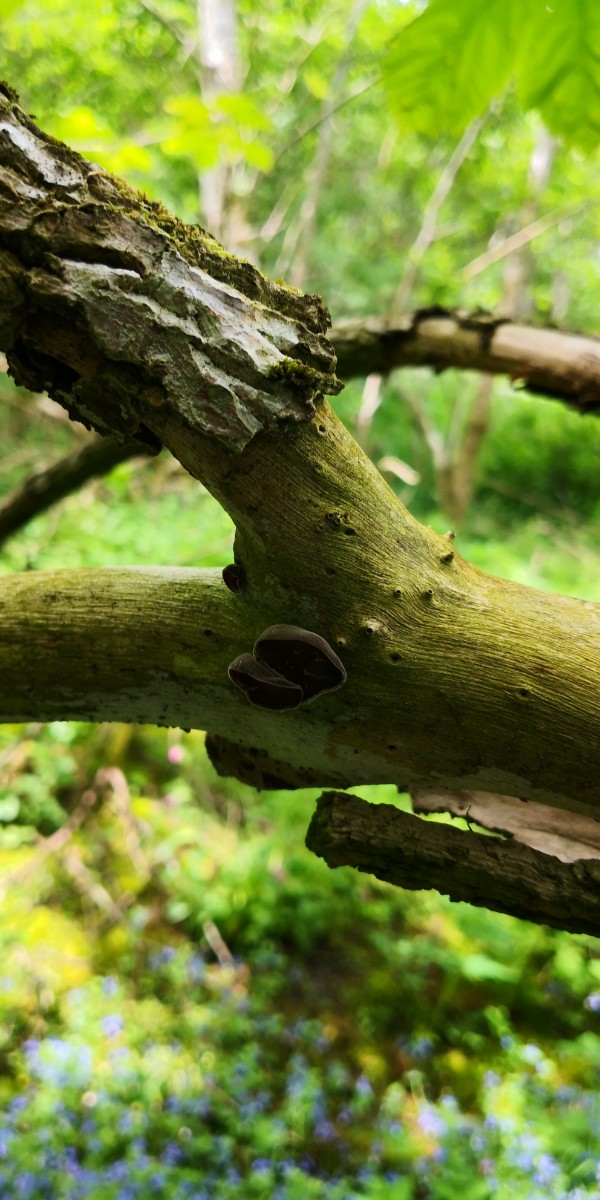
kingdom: Fungi
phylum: Basidiomycota
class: Agaricomycetes
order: Auriculariales
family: Auriculariaceae
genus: Auricularia
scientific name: Auricularia auricula-judae
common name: almindelig judasøre
